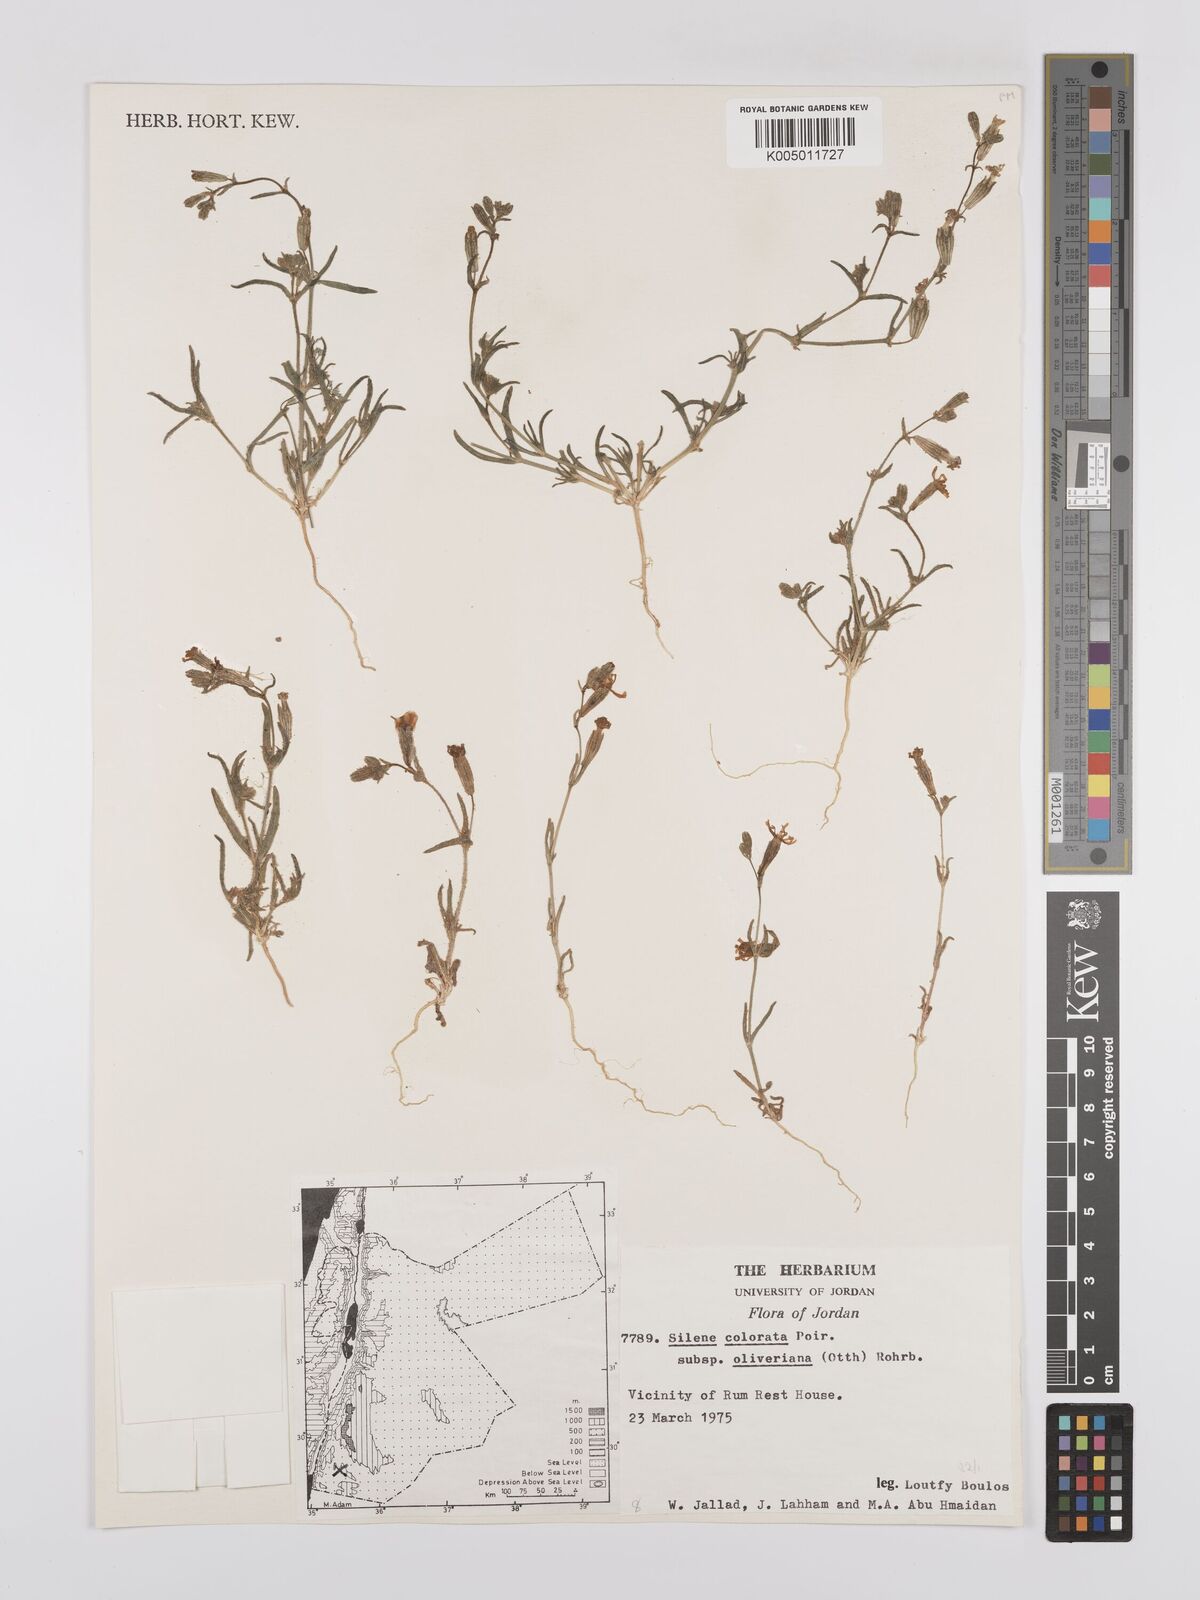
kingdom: Plantae
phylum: Tracheophyta
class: Magnoliopsida
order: Caryophyllales
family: Caryophyllaceae
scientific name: Caryophyllaceae
